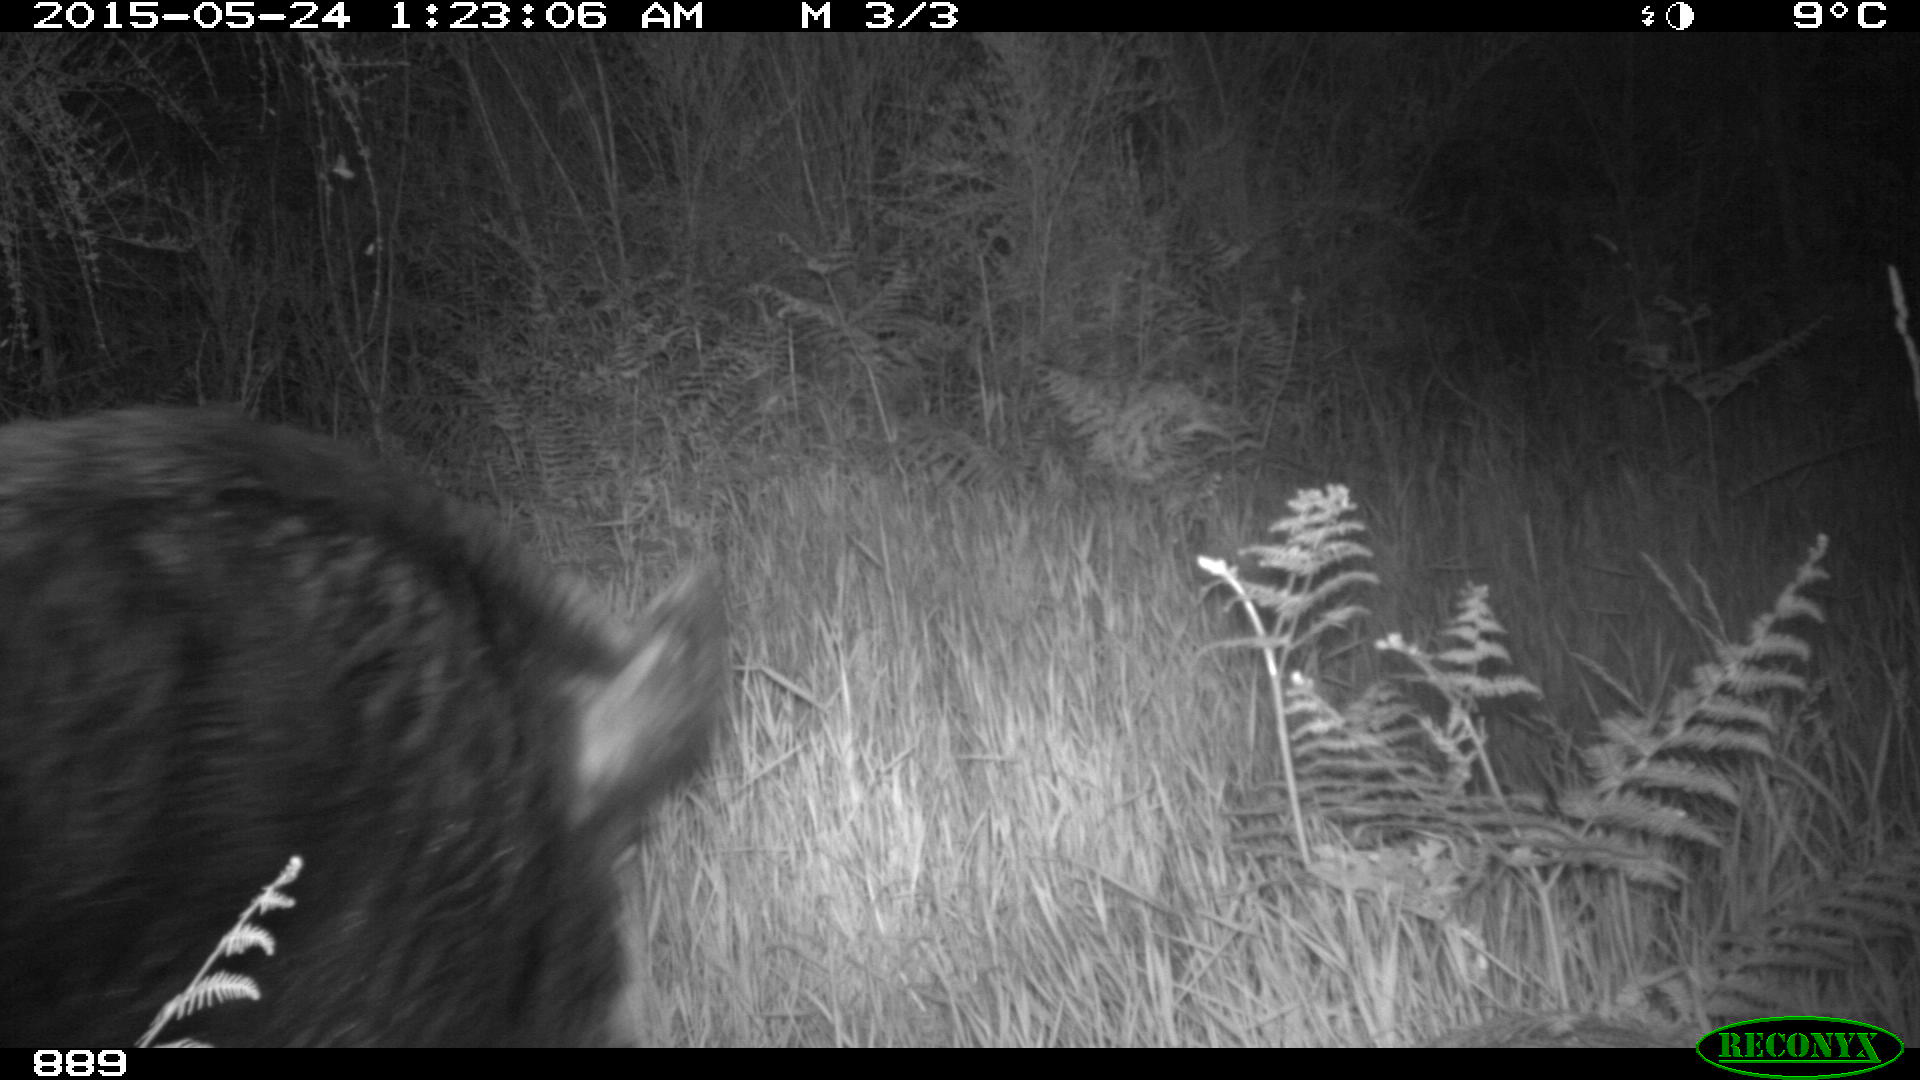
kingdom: Animalia
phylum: Chordata
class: Mammalia
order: Artiodactyla
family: Suidae
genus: Sus
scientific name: Sus scrofa
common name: Wild boar
